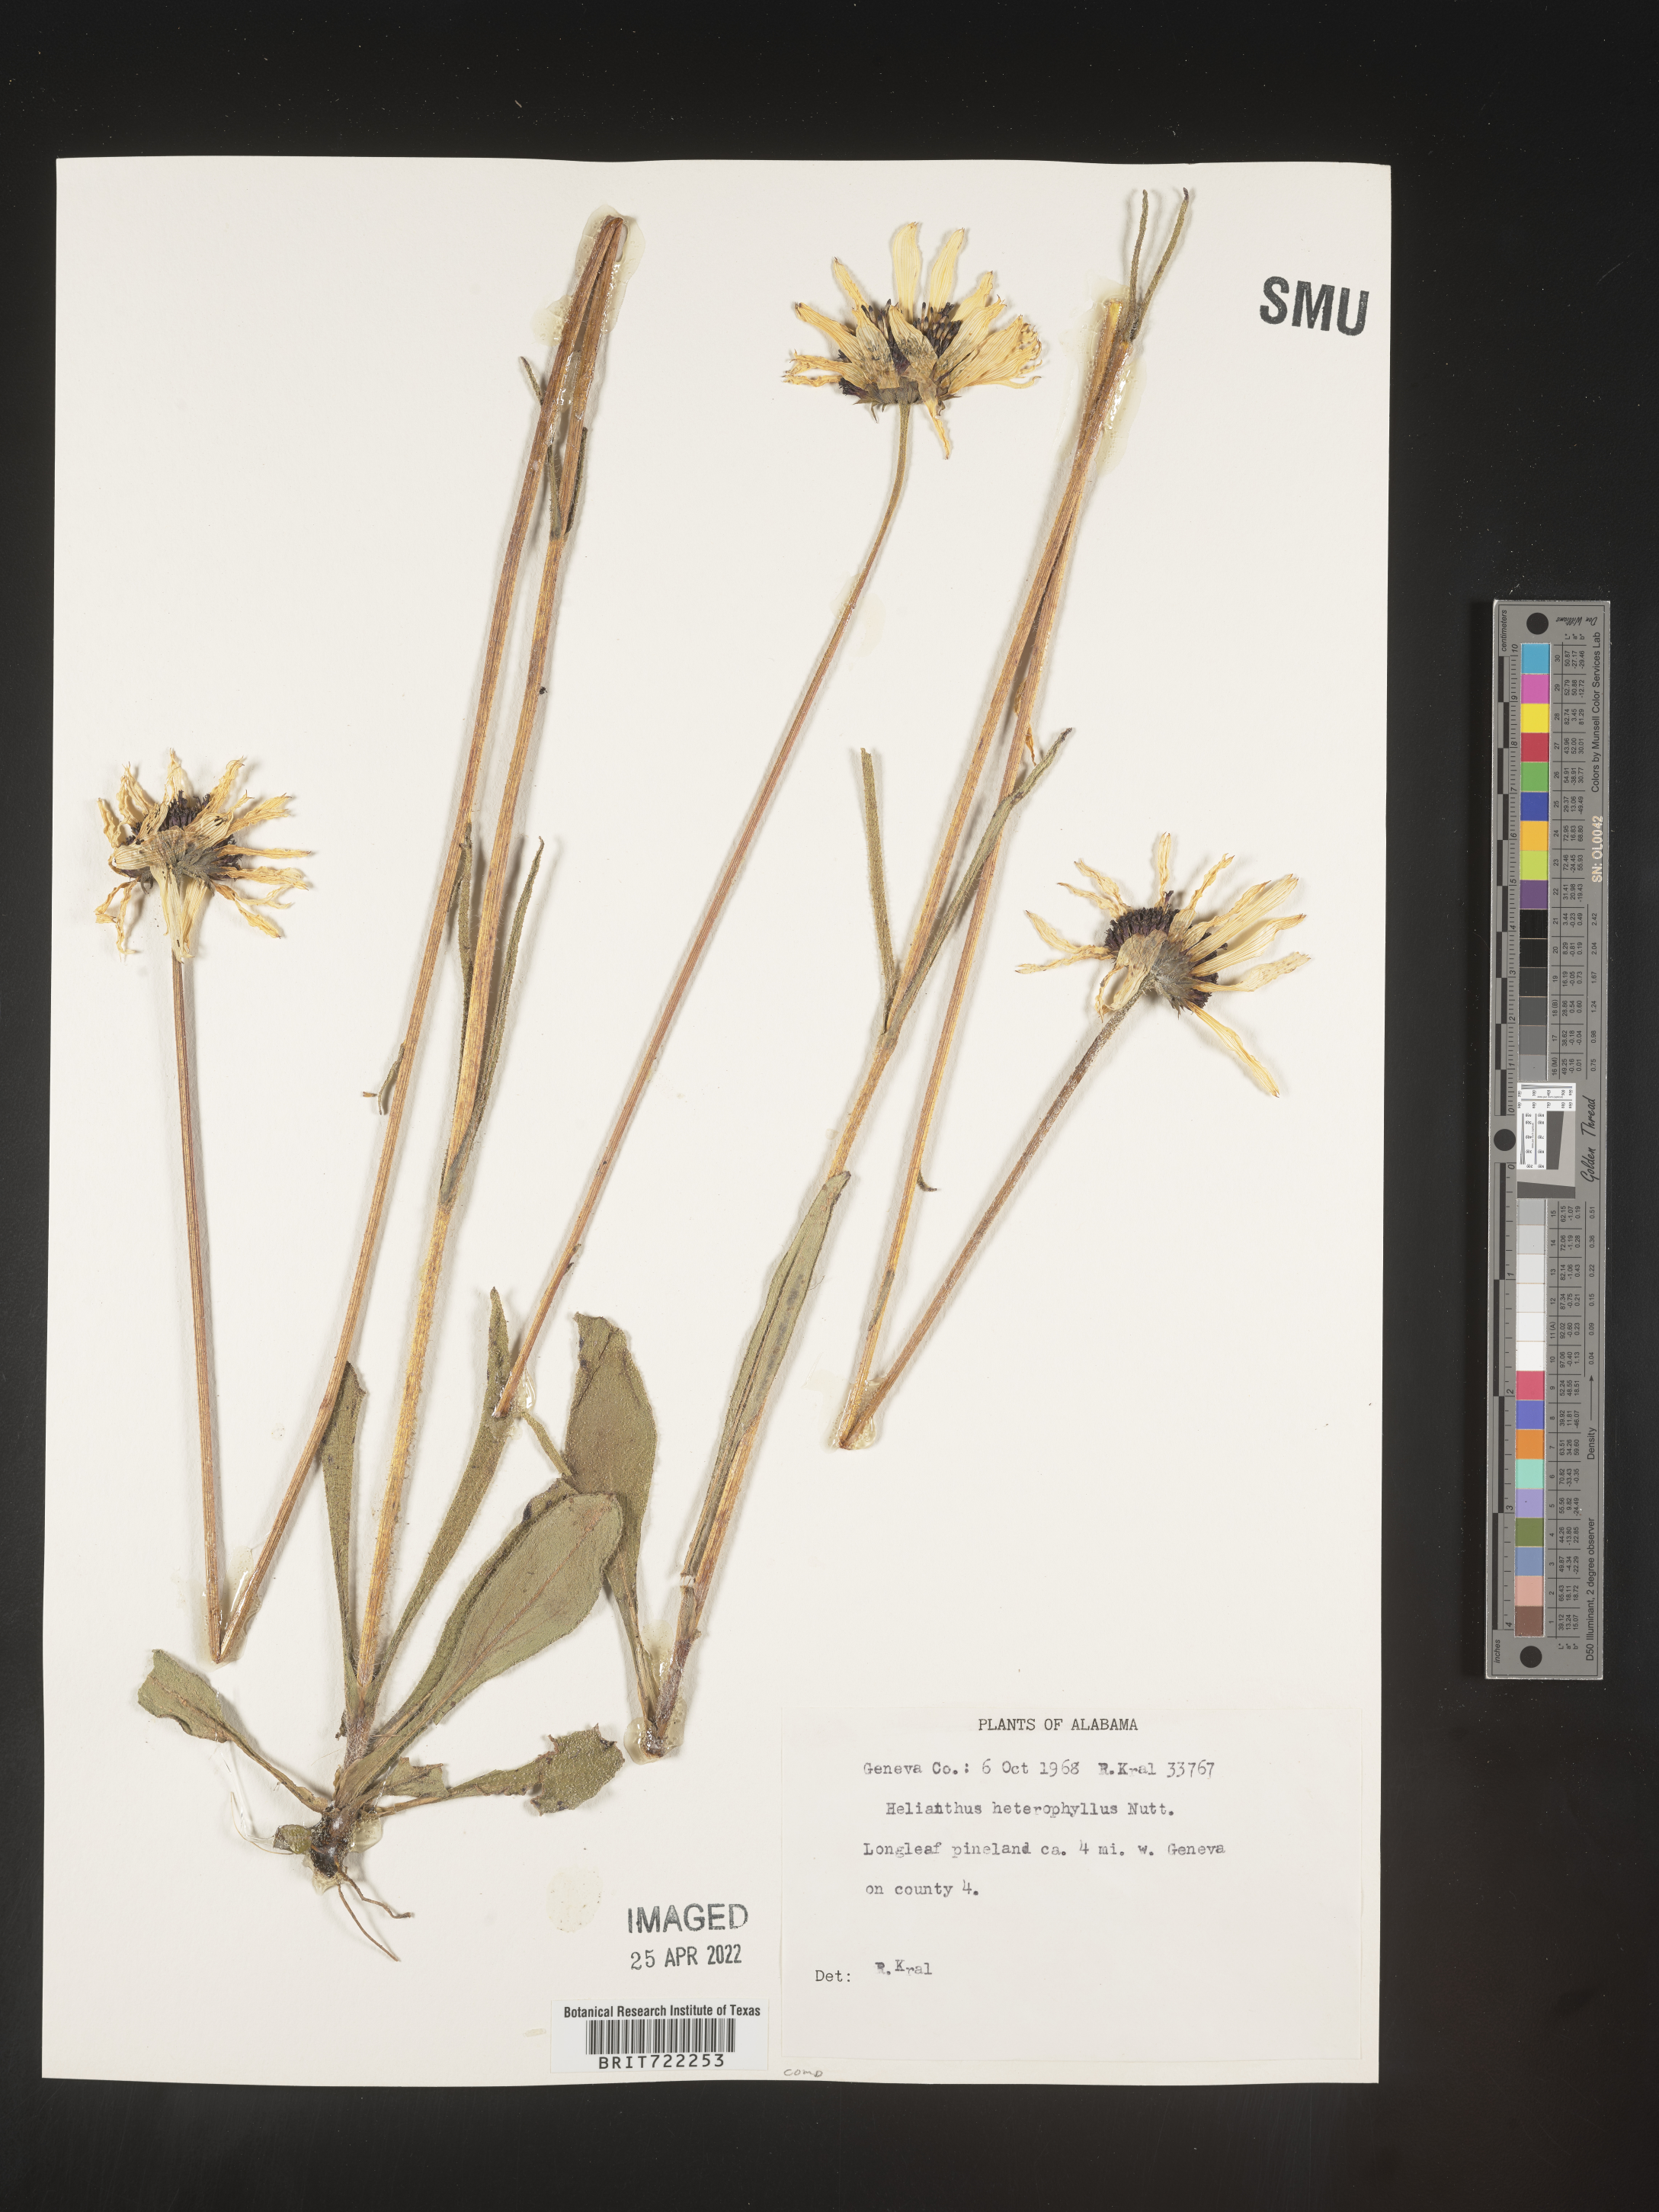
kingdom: Plantae
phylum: Tracheophyta
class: Magnoliopsida
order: Asterales
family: Asteraceae
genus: Helianthus
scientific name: Helianthus heterophyllus
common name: Wetland sunflower
